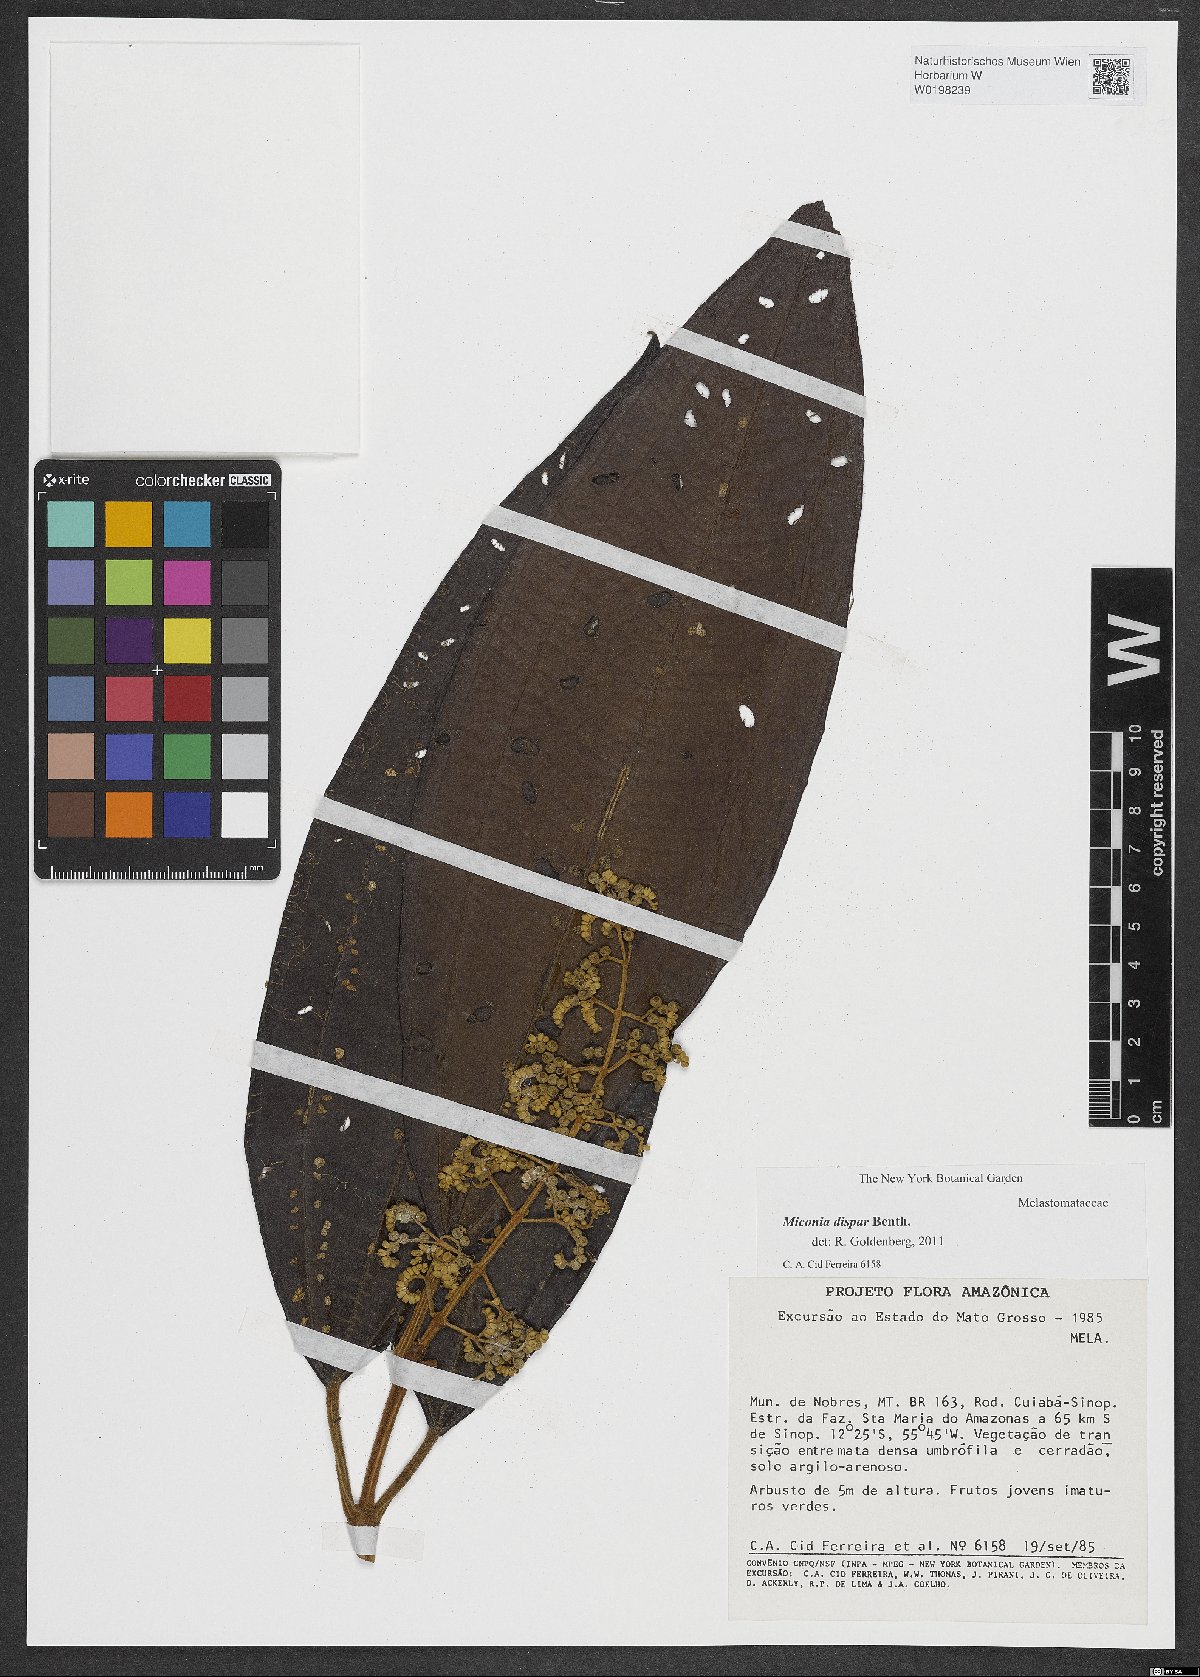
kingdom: Plantae
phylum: Tracheophyta
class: Magnoliopsida
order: Myrtales
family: Melastomataceae
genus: Miconia
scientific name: Miconia dispar
